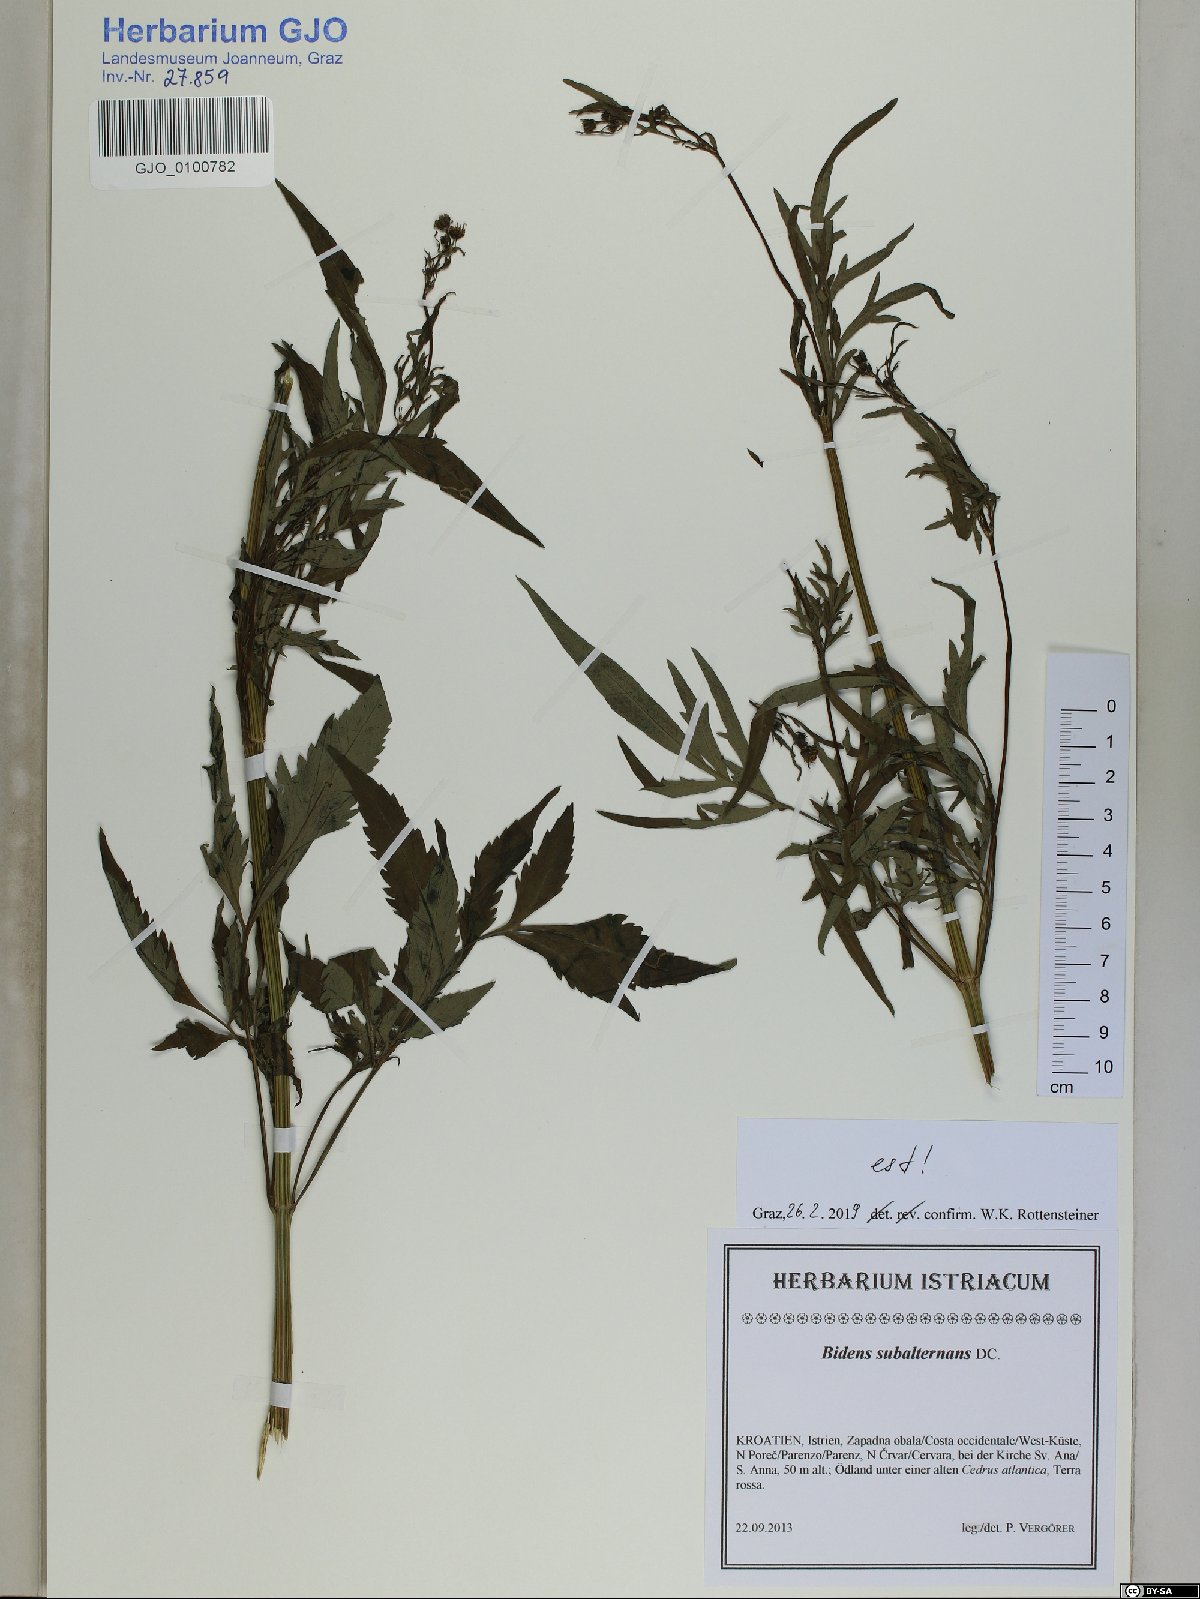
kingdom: Plantae
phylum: Tracheophyta
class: Magnoliopsida
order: Asterales
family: Asteraceae
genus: Bidens
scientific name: Bidens subalternans
